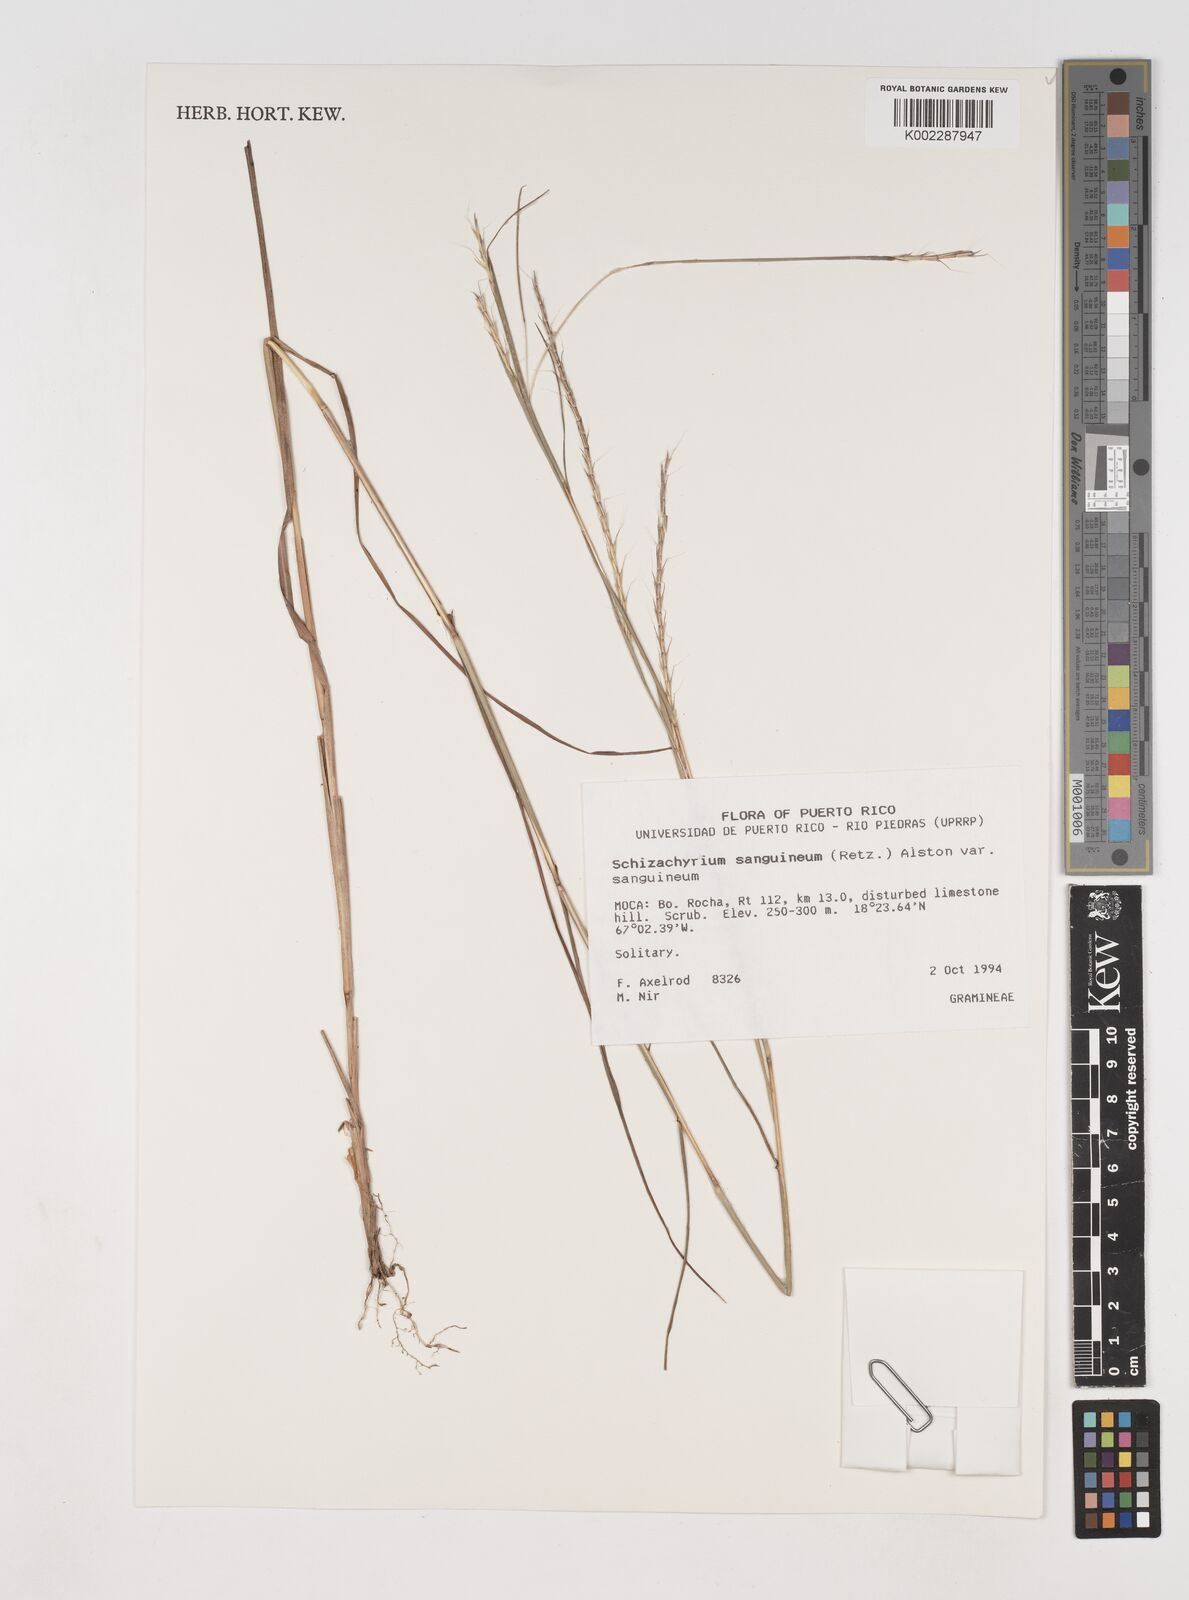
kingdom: Plantae
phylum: Tracheophyta
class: Liliopsida
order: Poales
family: Poaceae
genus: Schizachyrium
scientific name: Schizachyrium sanguineum
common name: Crimson bluestem
